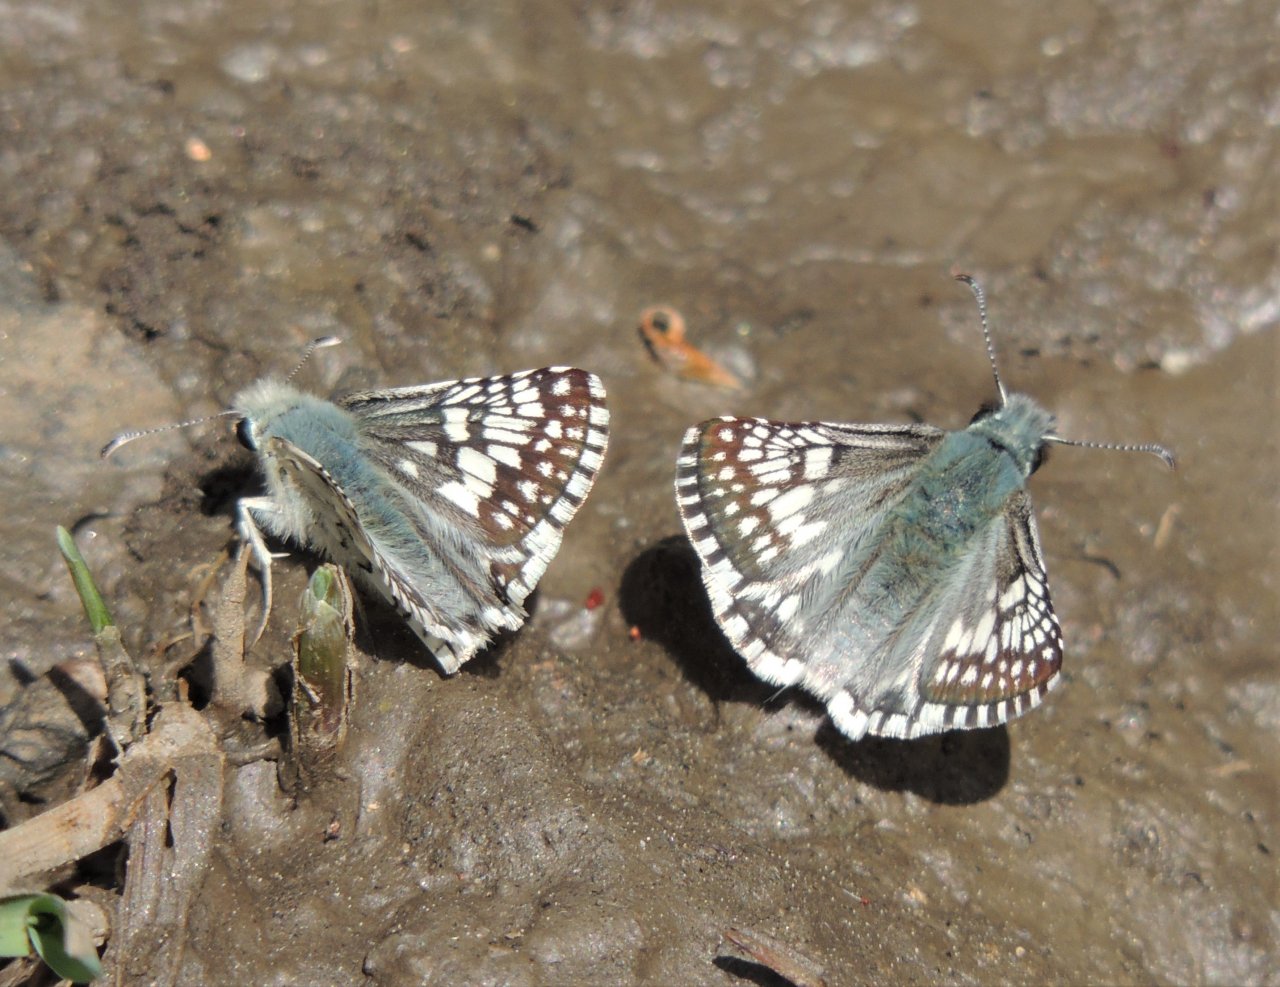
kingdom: Animalia
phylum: Arthropoda
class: Insecta
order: Lepidoptera
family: Hesperiidae
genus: Pyrgus
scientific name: Pyrgus communis
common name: Common Checkered-Skipper
